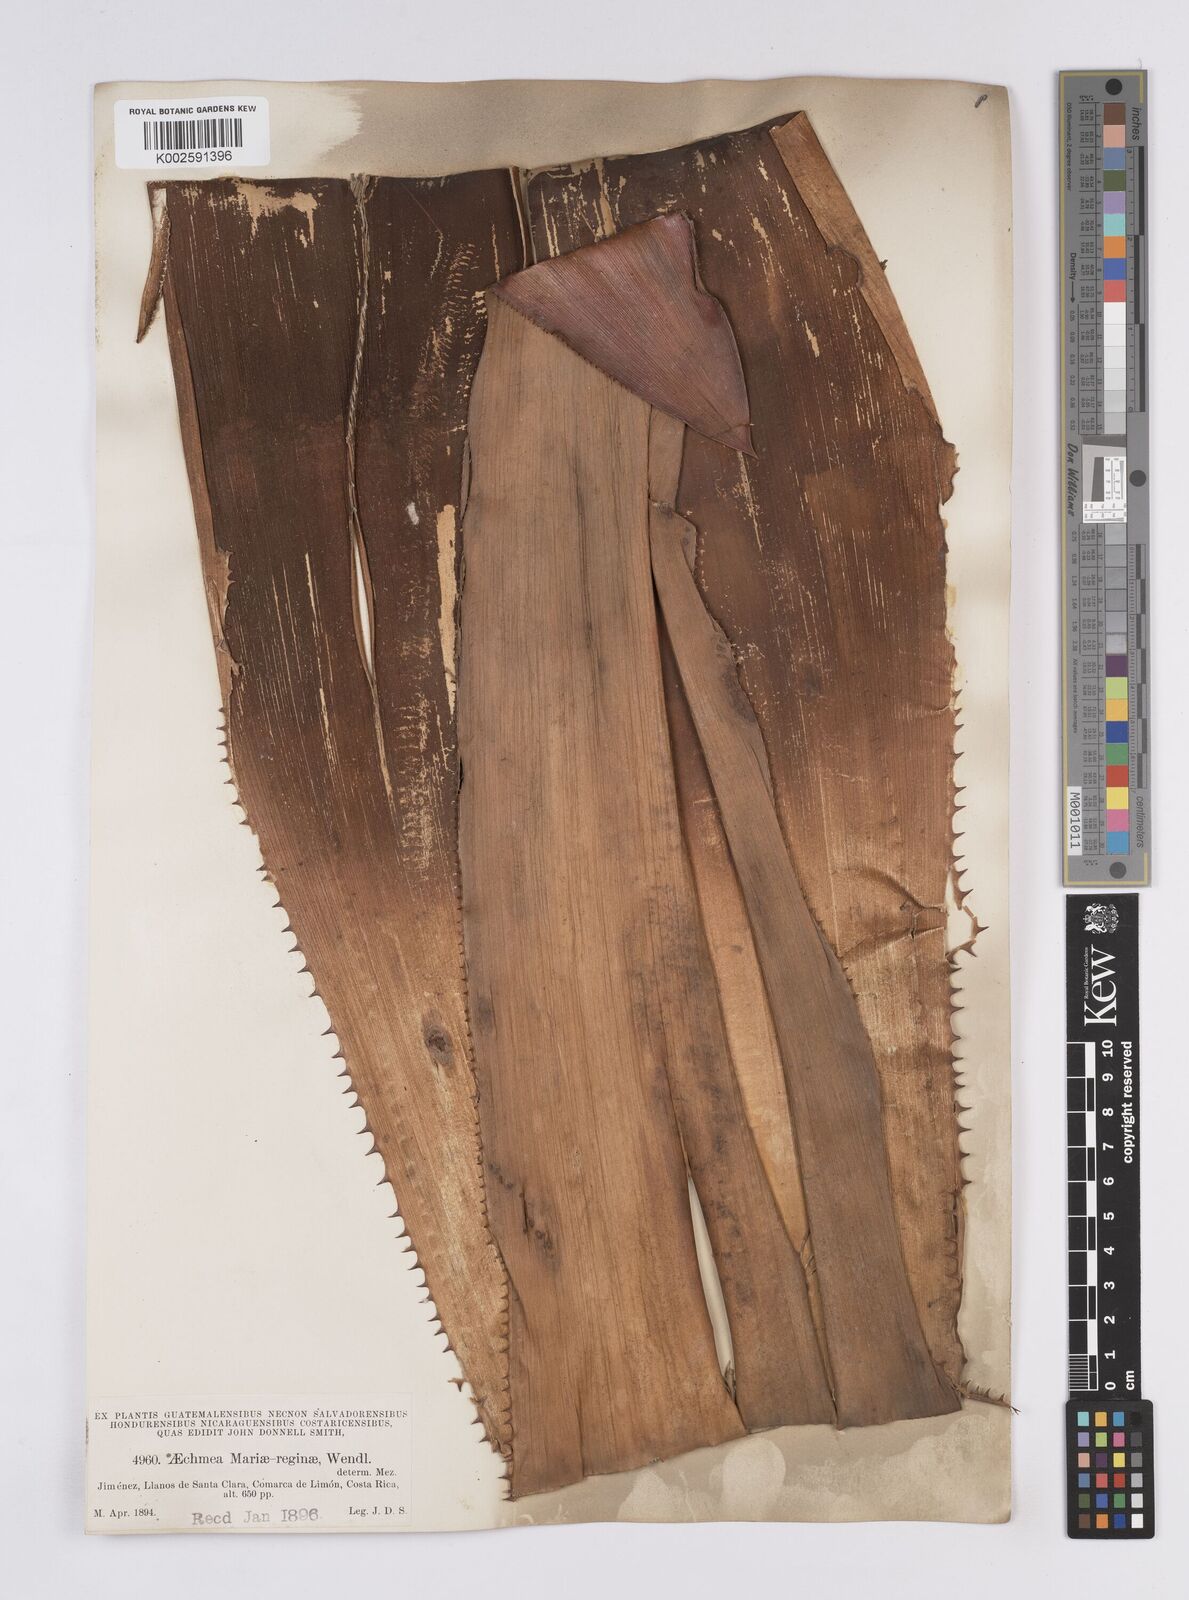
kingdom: Plantae
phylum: Tracheophyta
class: Liliopsida
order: Poales
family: Bromeliaceae
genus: Aechmea
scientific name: Aechmea mariae-reginae
